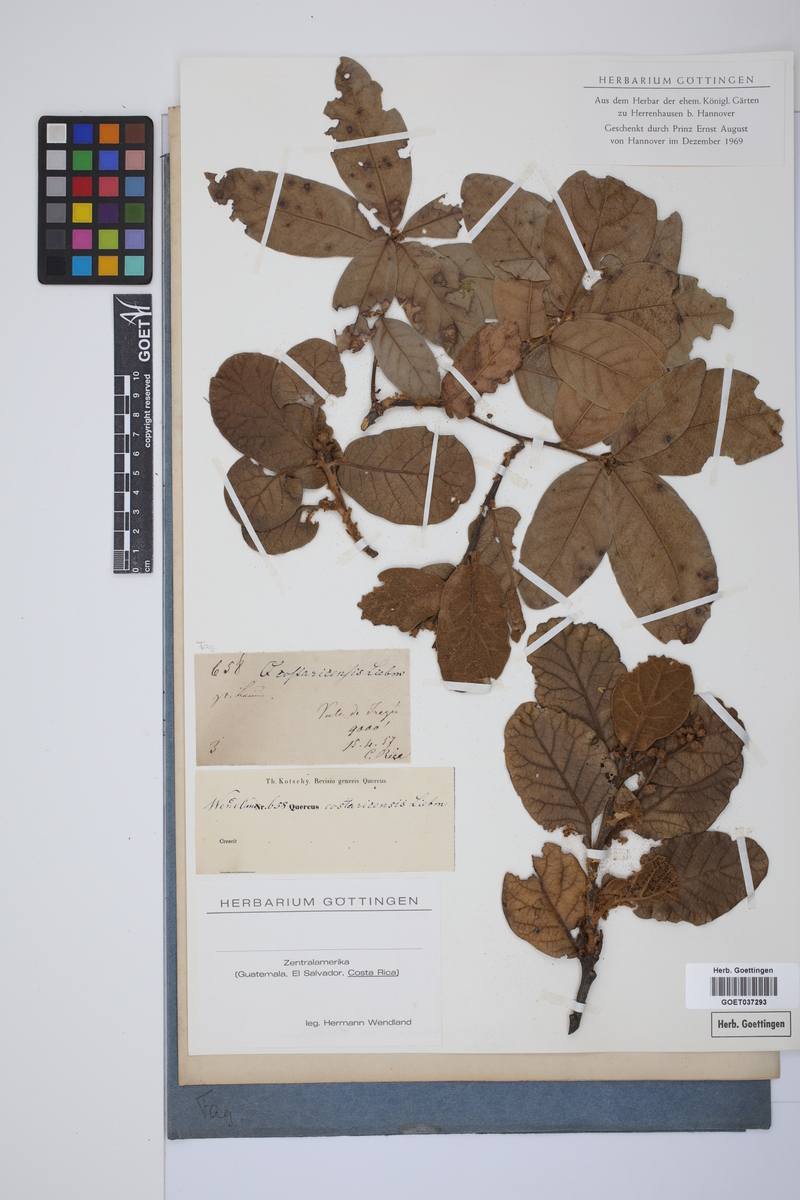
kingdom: Plantae
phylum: Tracheophyta
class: Magnoliopsida
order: Fagales
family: Fagaceae
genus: Quercus
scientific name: Quercus costaricensis
